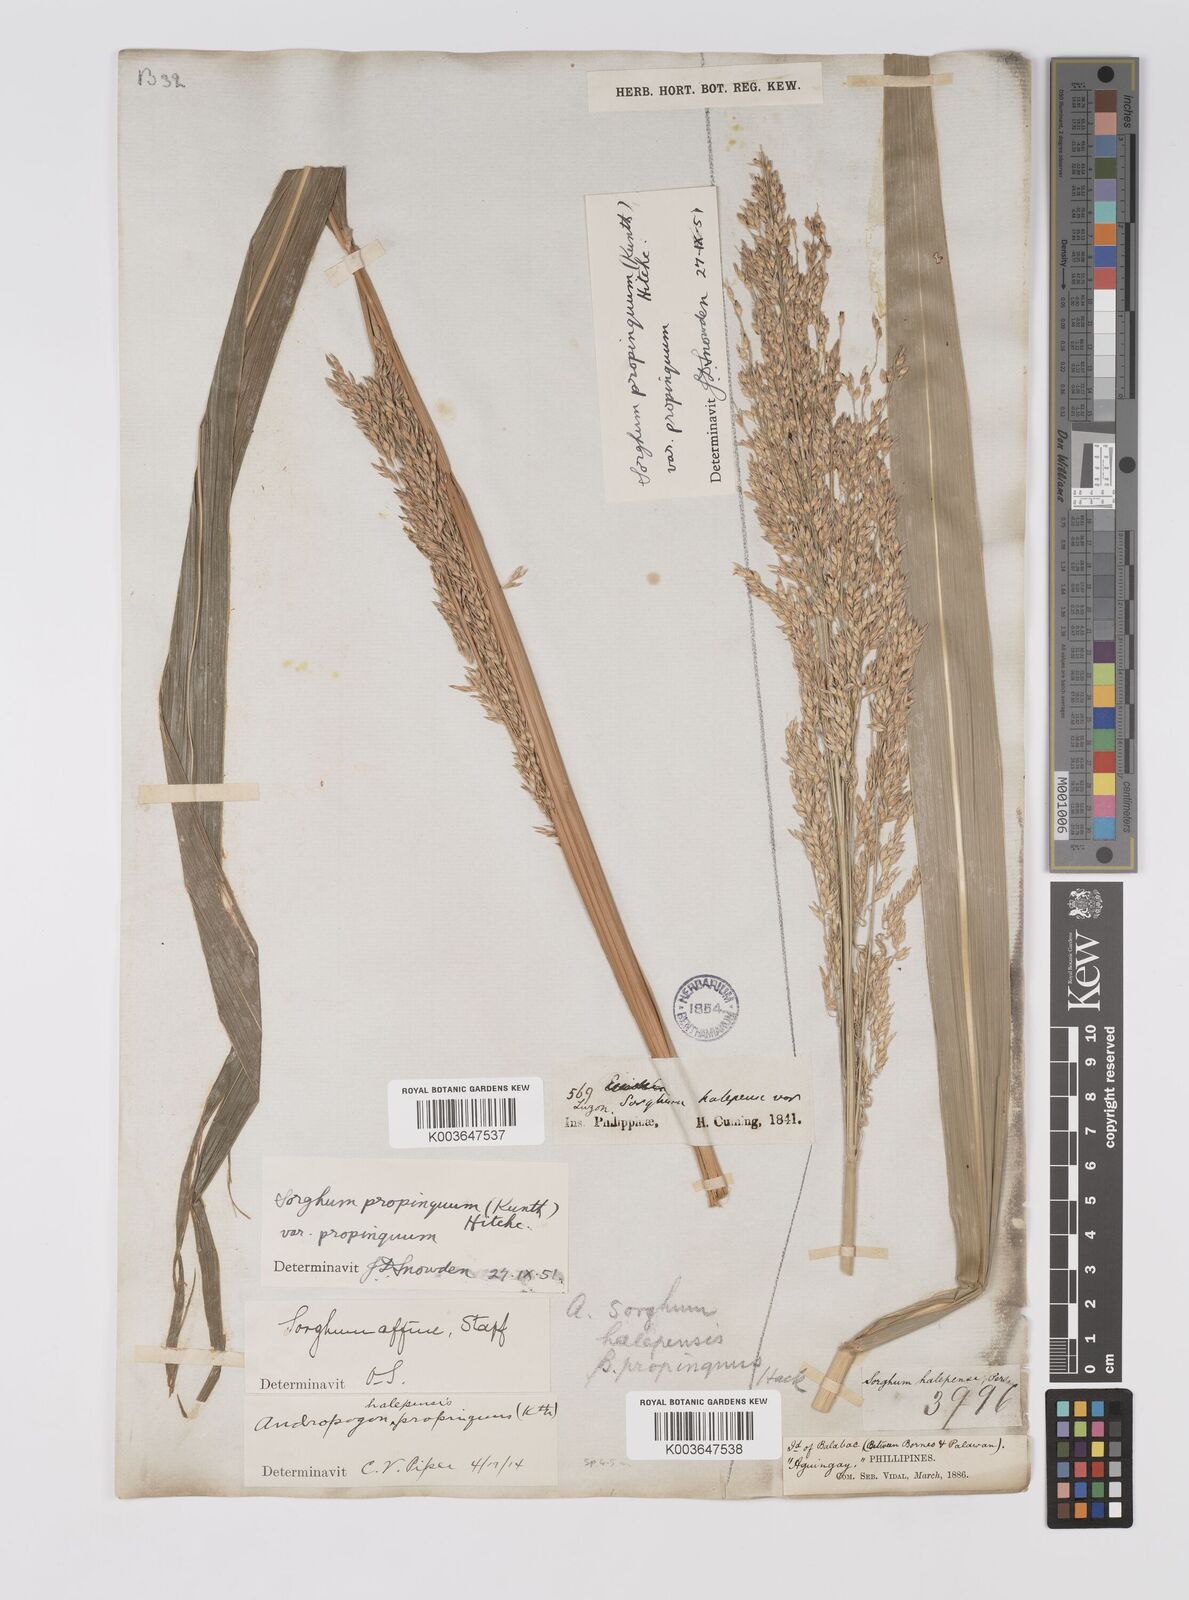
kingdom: Plantae
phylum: Tracheophyta
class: Liliopsida
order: Poales
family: Poaceae
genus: Sorghum
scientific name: Sorghum propinquum
